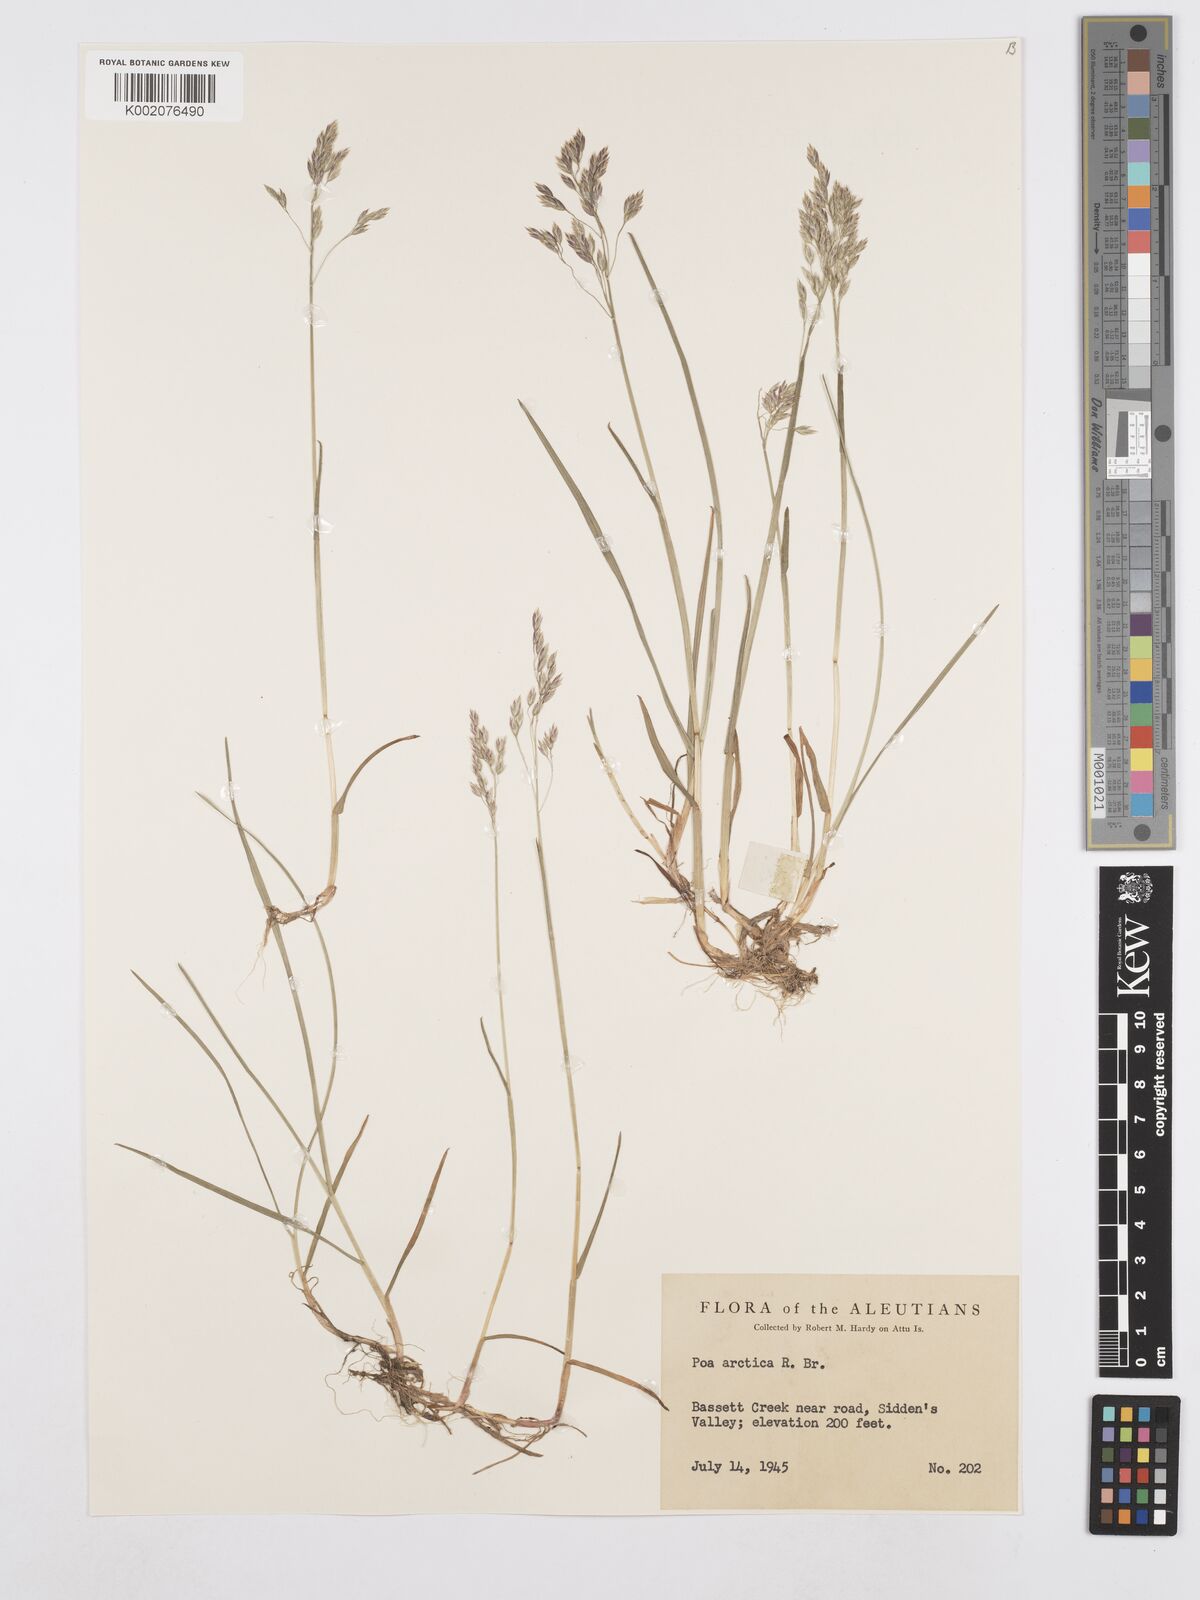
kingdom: Plantae
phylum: Tracheophyta
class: Liliopsida
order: Poales
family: Poaceae
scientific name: Poaceae
